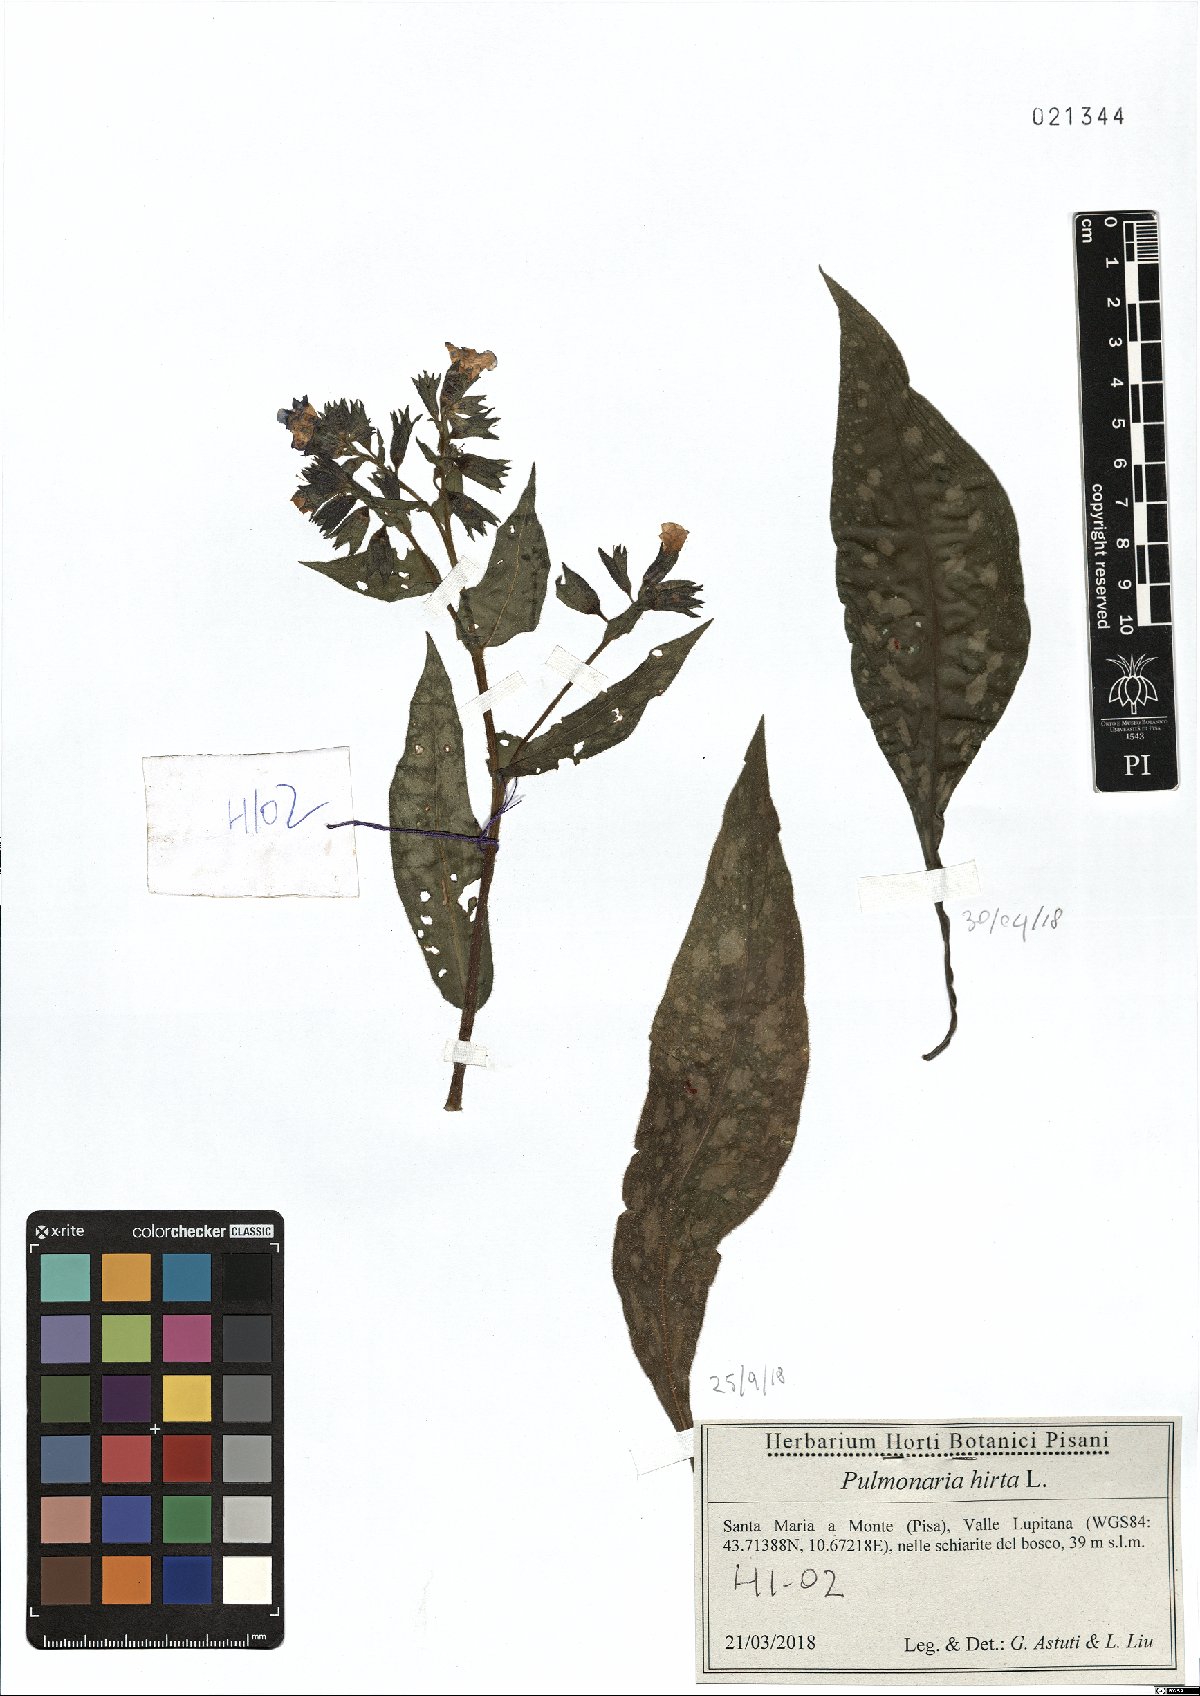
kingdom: Plantae
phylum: Tracheophyta
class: Magnoliopsida
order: Boraginales
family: Boraginaceae
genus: Pulmonaria
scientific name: Pulmonaria hirta
